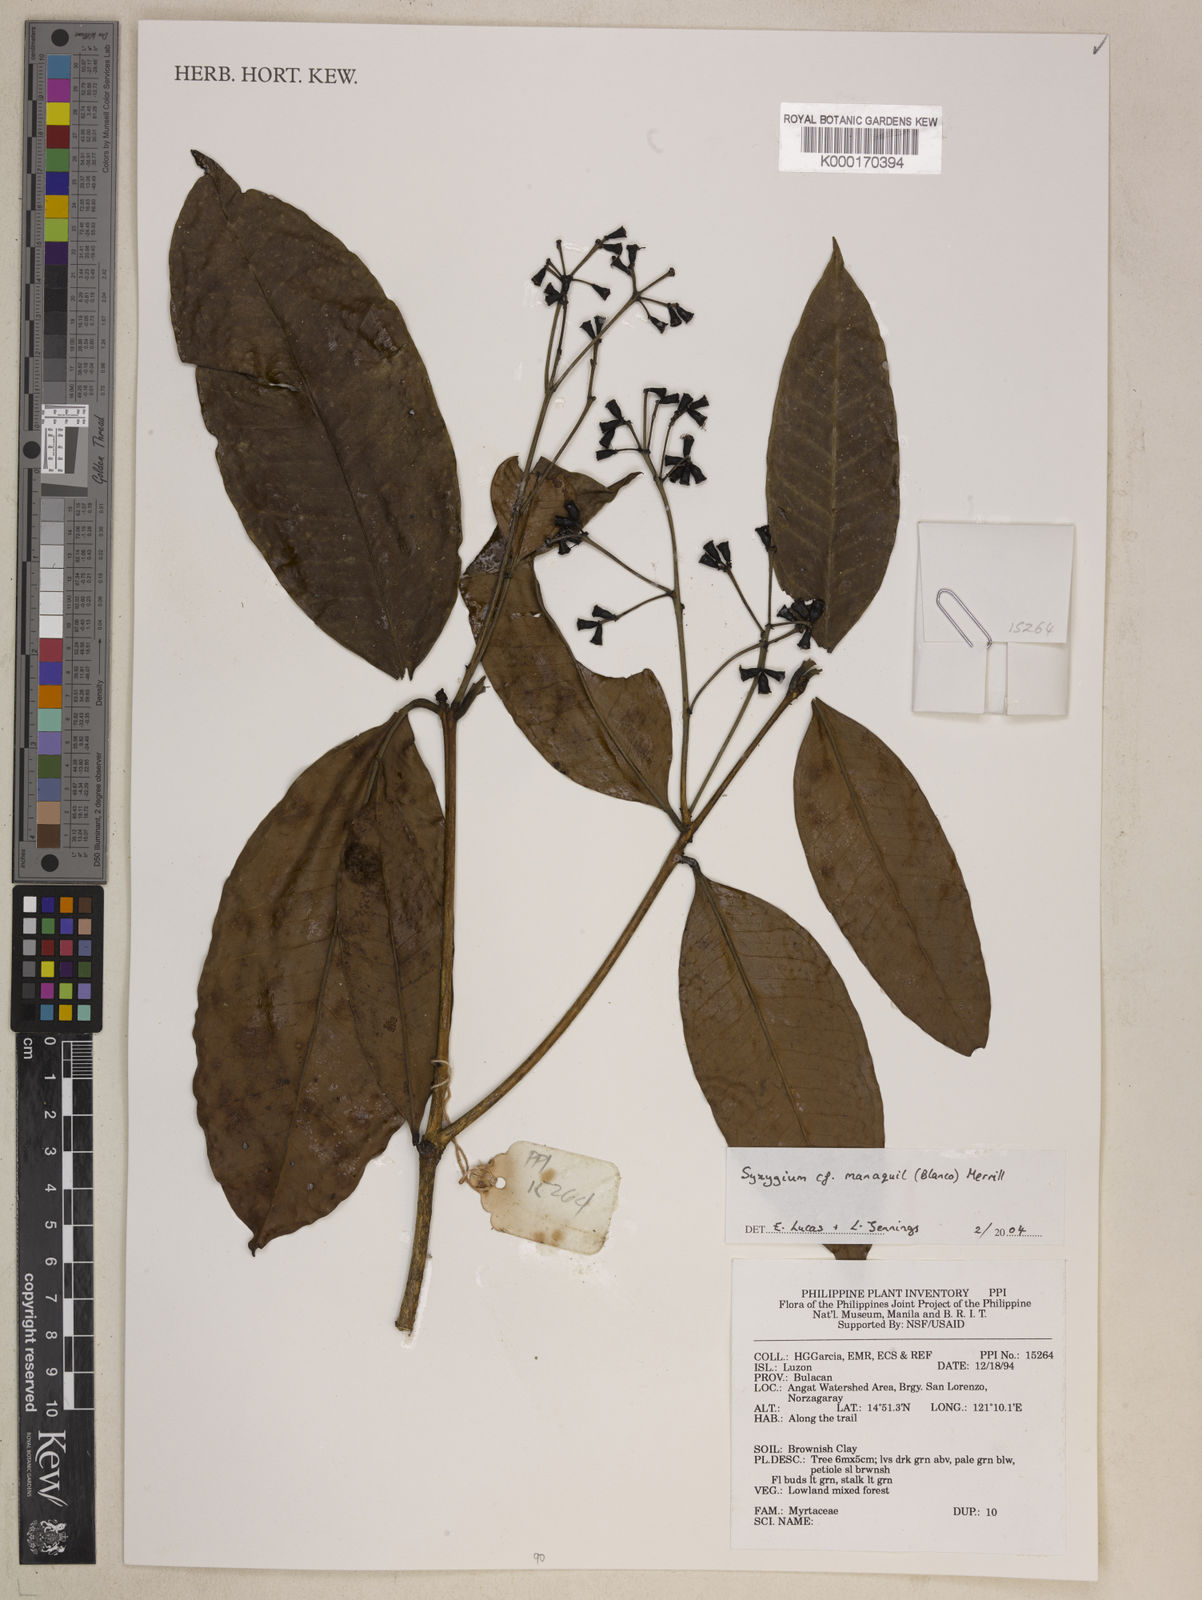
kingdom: Plantae
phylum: Tracheophyta
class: Magnoliopsida
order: Myrtales
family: Myrtaceae
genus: Syzygium
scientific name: Syzygium
